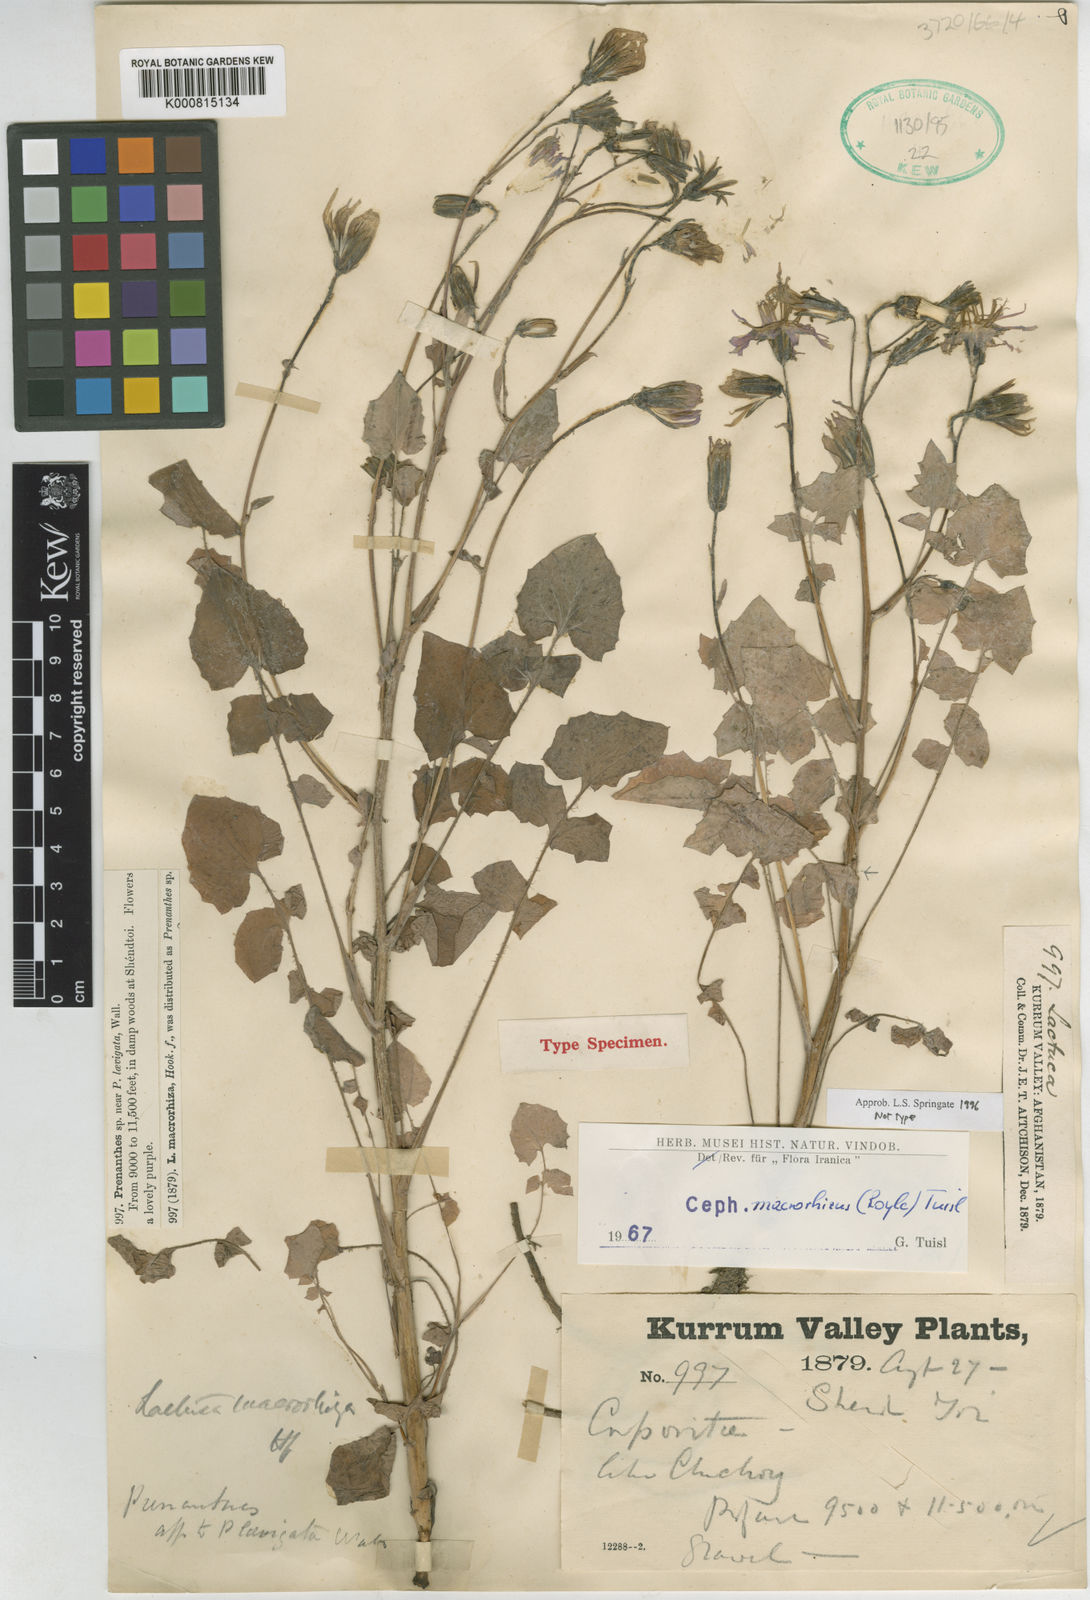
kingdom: Plantae
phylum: Tracheophyta
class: Magnoliopsida
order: Asterales
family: Asteraceae
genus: Melanoseris
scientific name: Melanoseris macrorhiza
